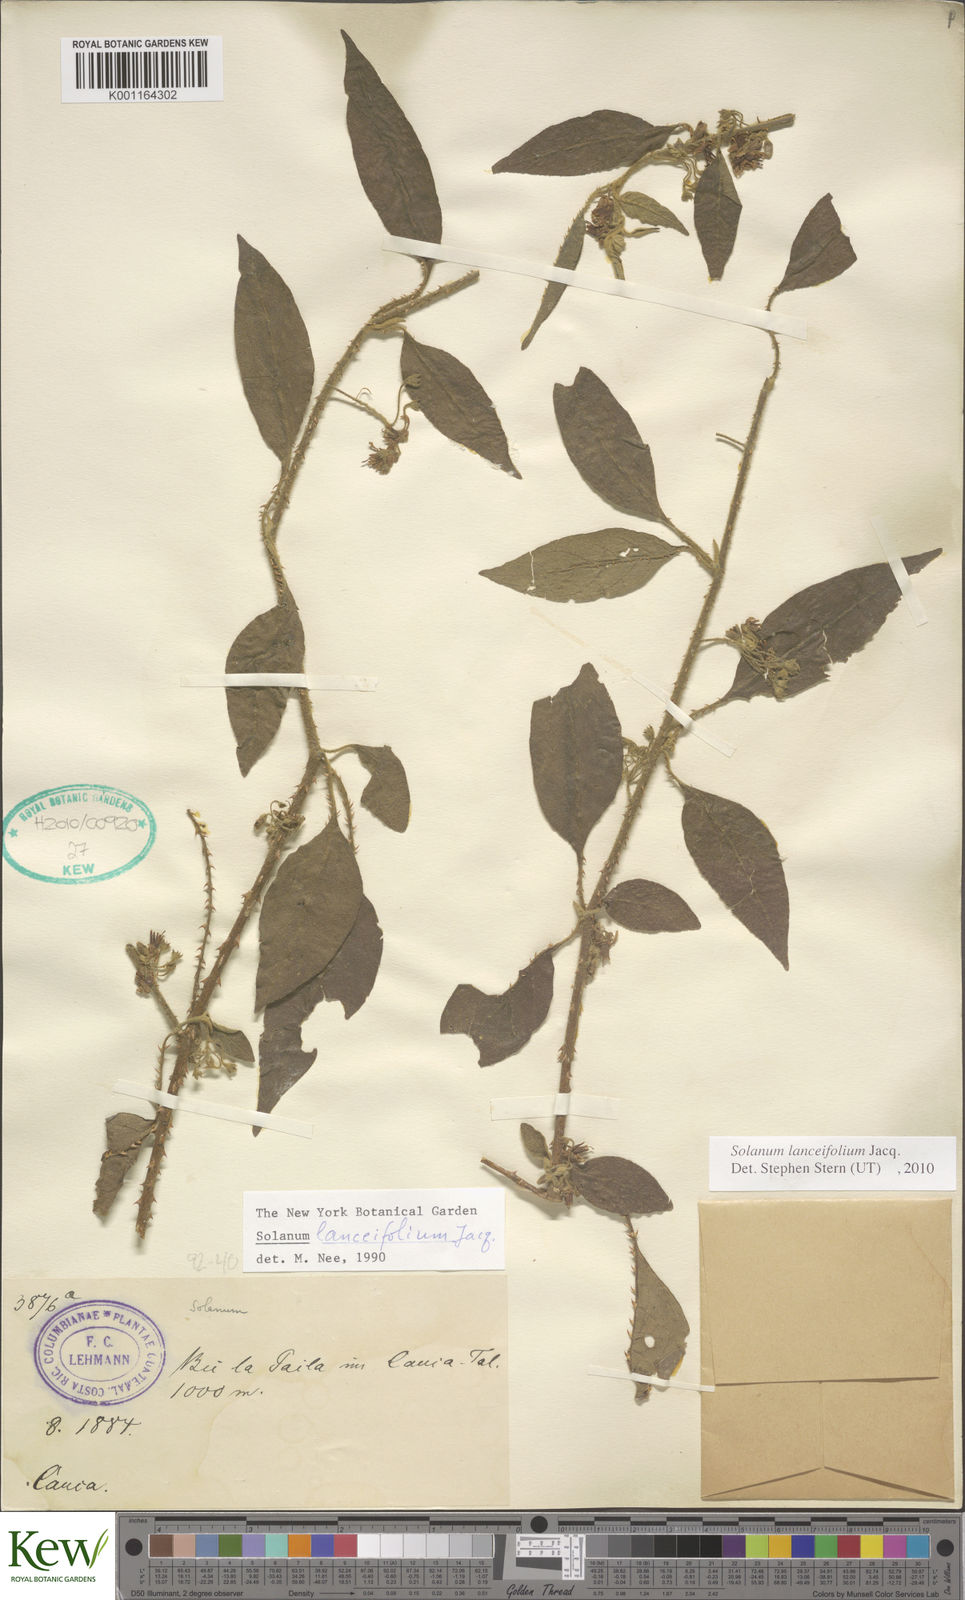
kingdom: Plantae
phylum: Tracheophyta
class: Magnoliopsida
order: Solanales
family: Solanaceae
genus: Solanum
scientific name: Solanum lanceifolium
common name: Lanceleaf nightshade
